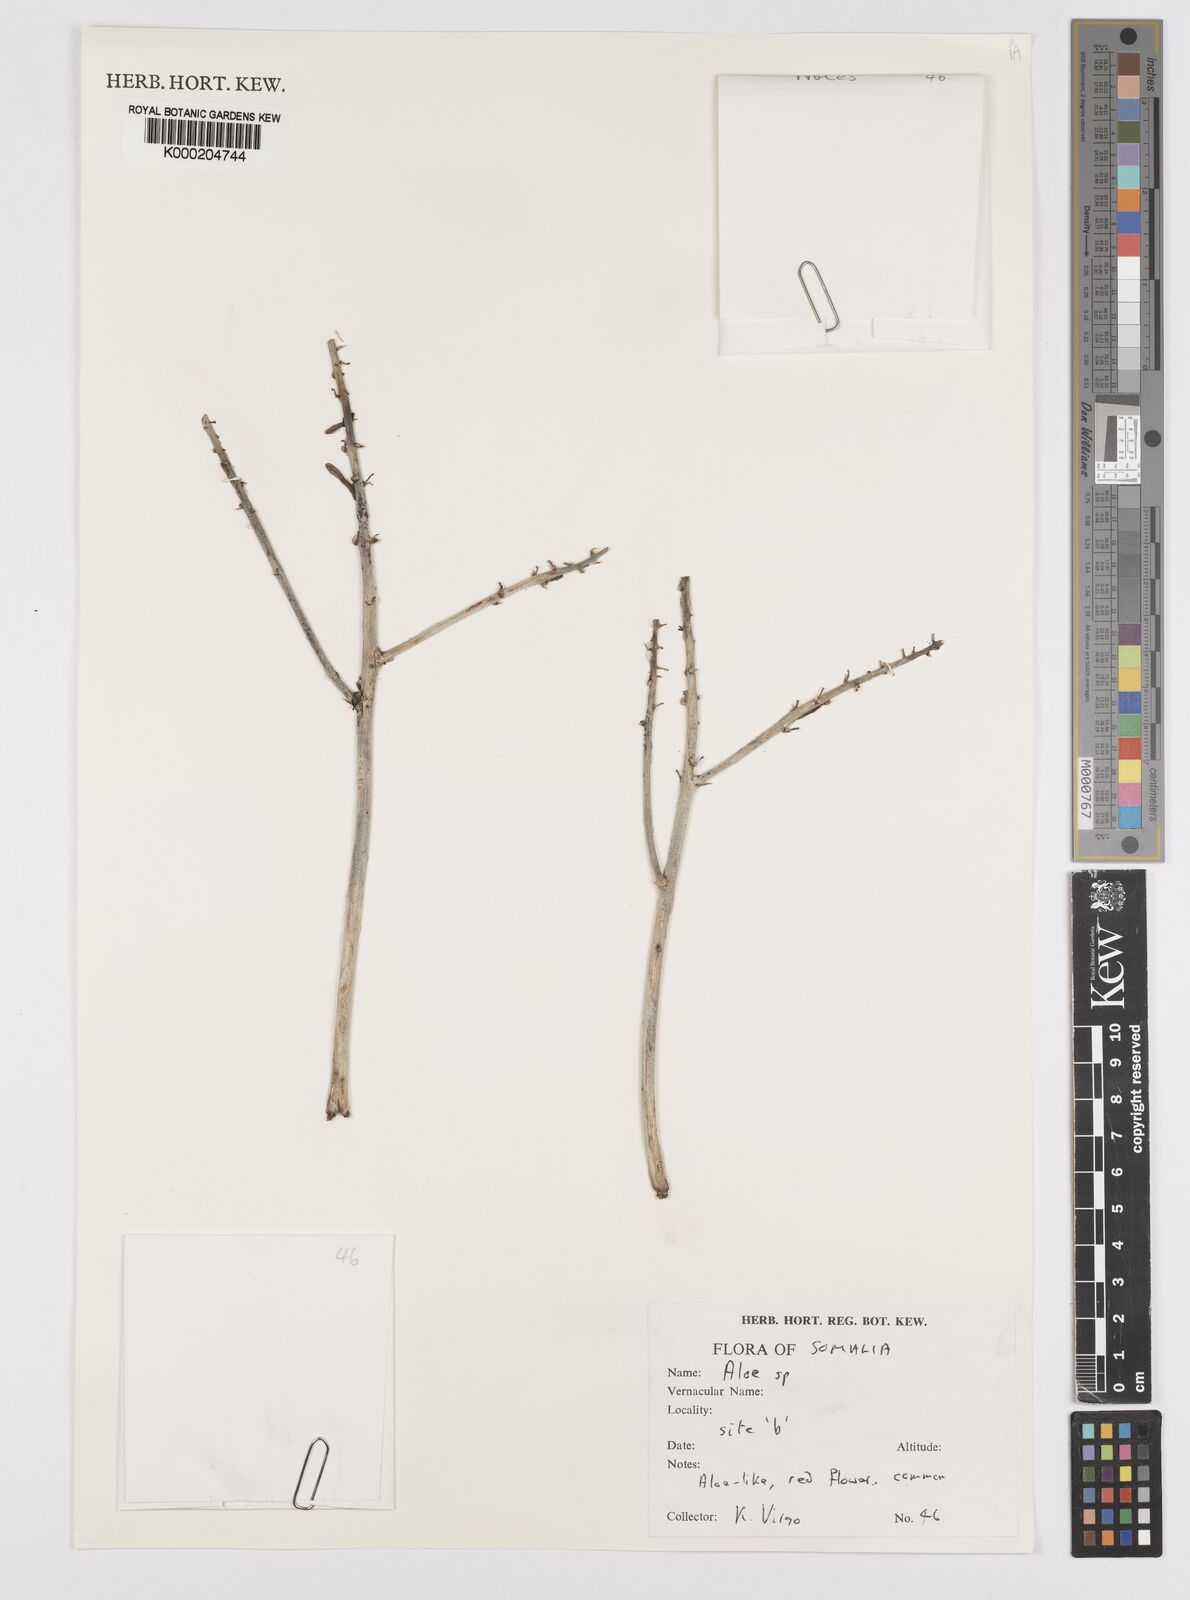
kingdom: Plantae
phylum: Tracheophyta
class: Liliopsida
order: Asparagales
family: Asphodelaceae
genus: Aloe
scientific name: Aloe
